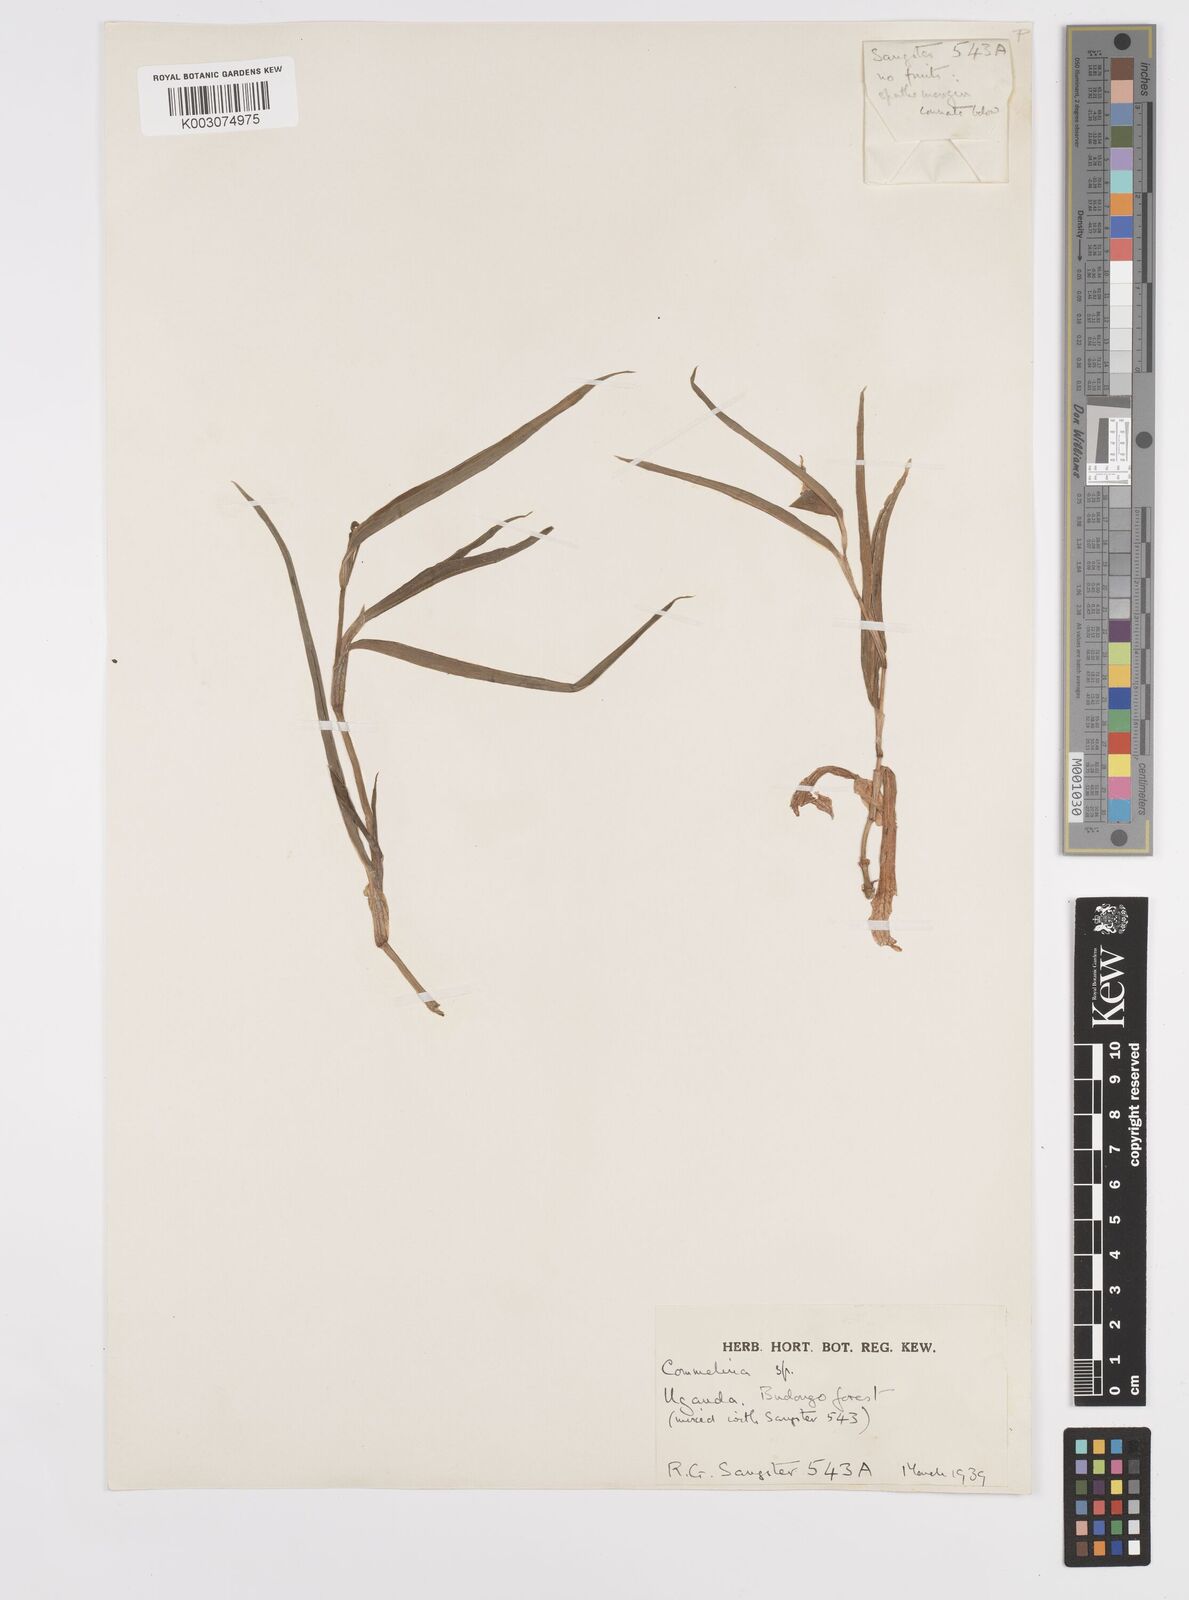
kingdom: Plantae
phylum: Tracheophyta
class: Liliopsida
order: Commelinales
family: Commelinaceae
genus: Commelina
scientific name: Commelina
